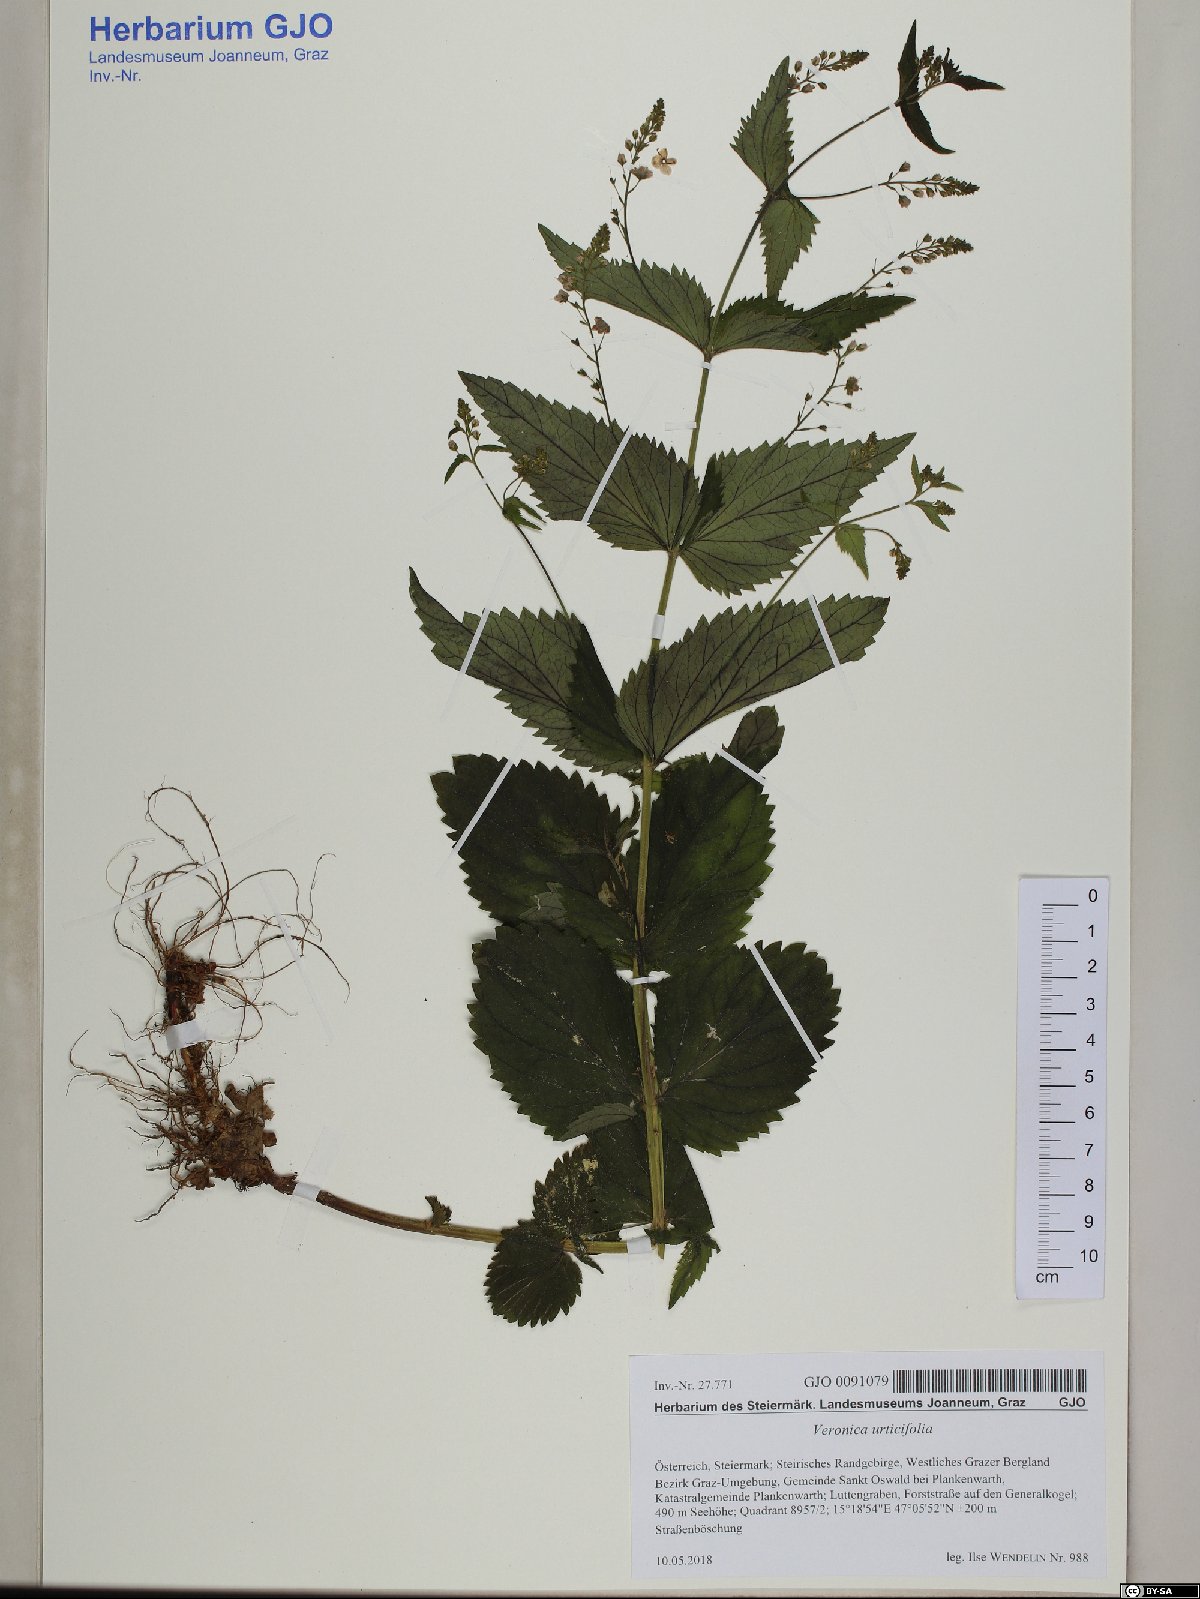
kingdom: Plantae
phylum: Tracheophyta
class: Magnoliopsida
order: Lamiales
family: Plantaginaceae
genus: Veronica
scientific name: Veronica urticifolia
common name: Nettle-leaf speedwell
